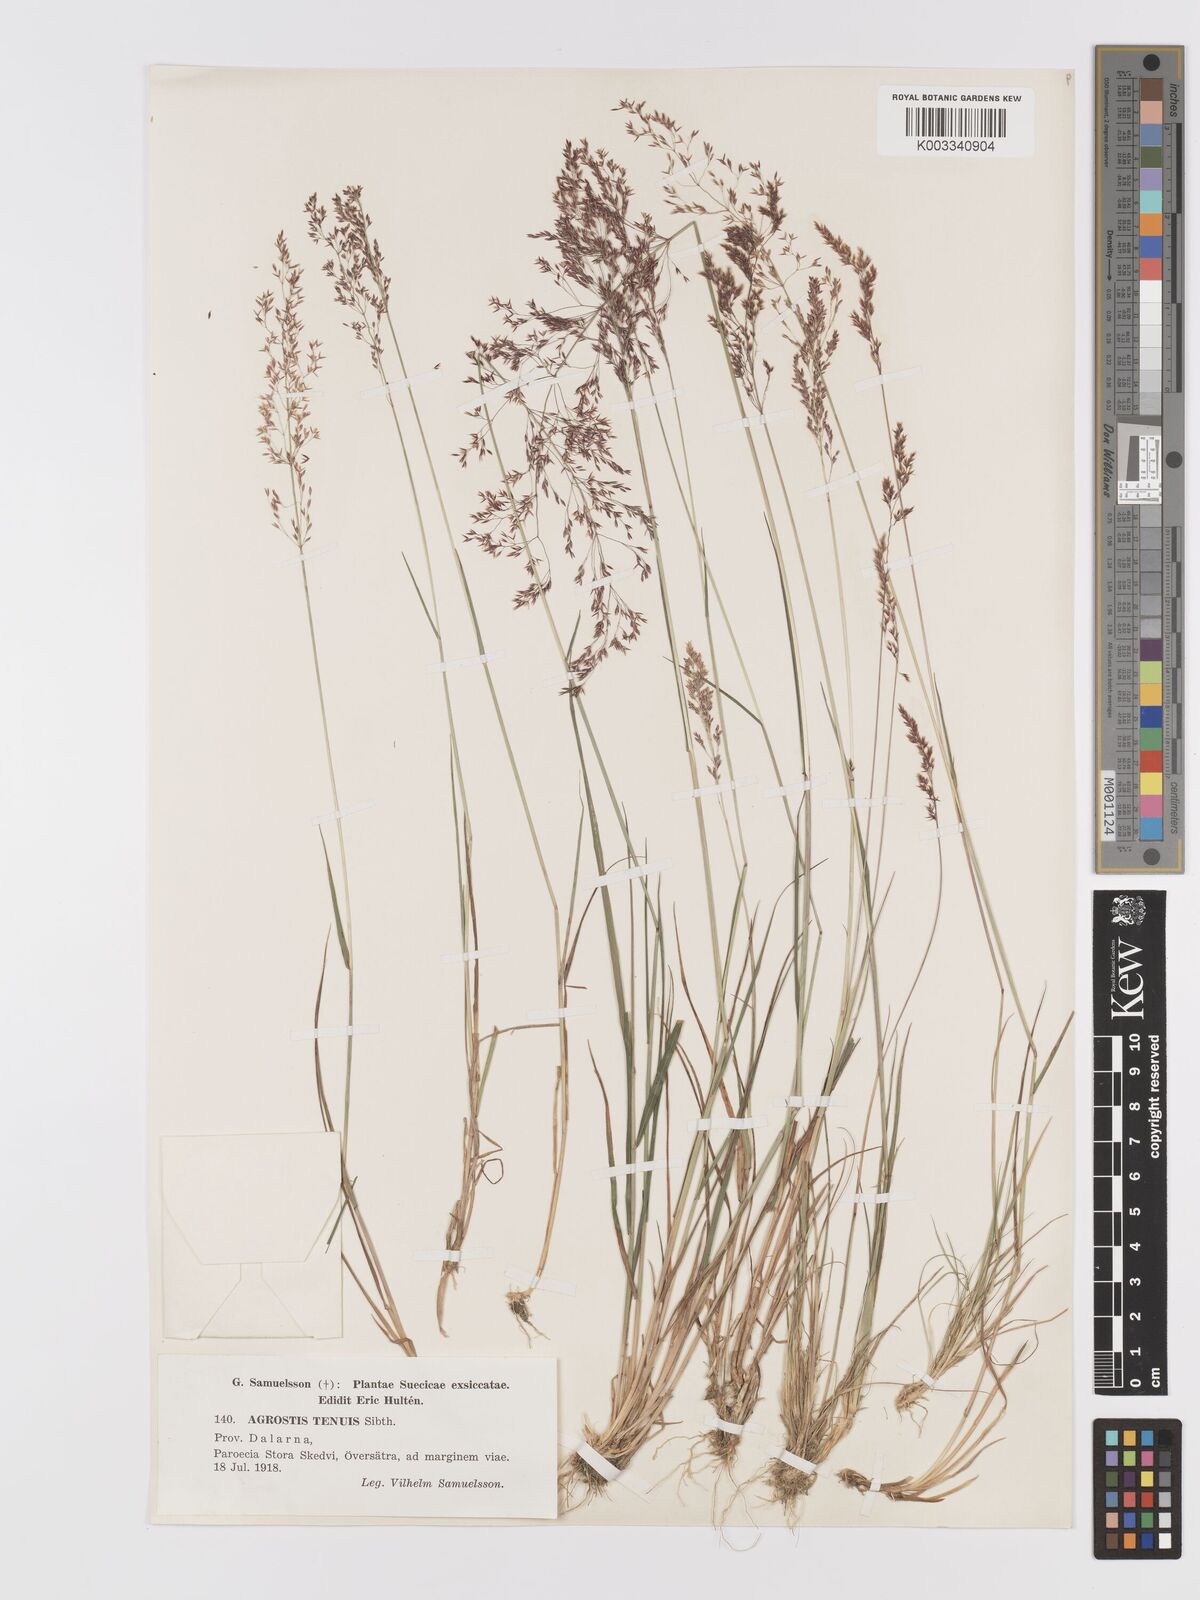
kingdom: Plantae
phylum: Tracheophyta
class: Liliopsida
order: Poales
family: Poaceae
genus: Agrostis
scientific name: Agrostis capillaris
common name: Colonial bentgrass
